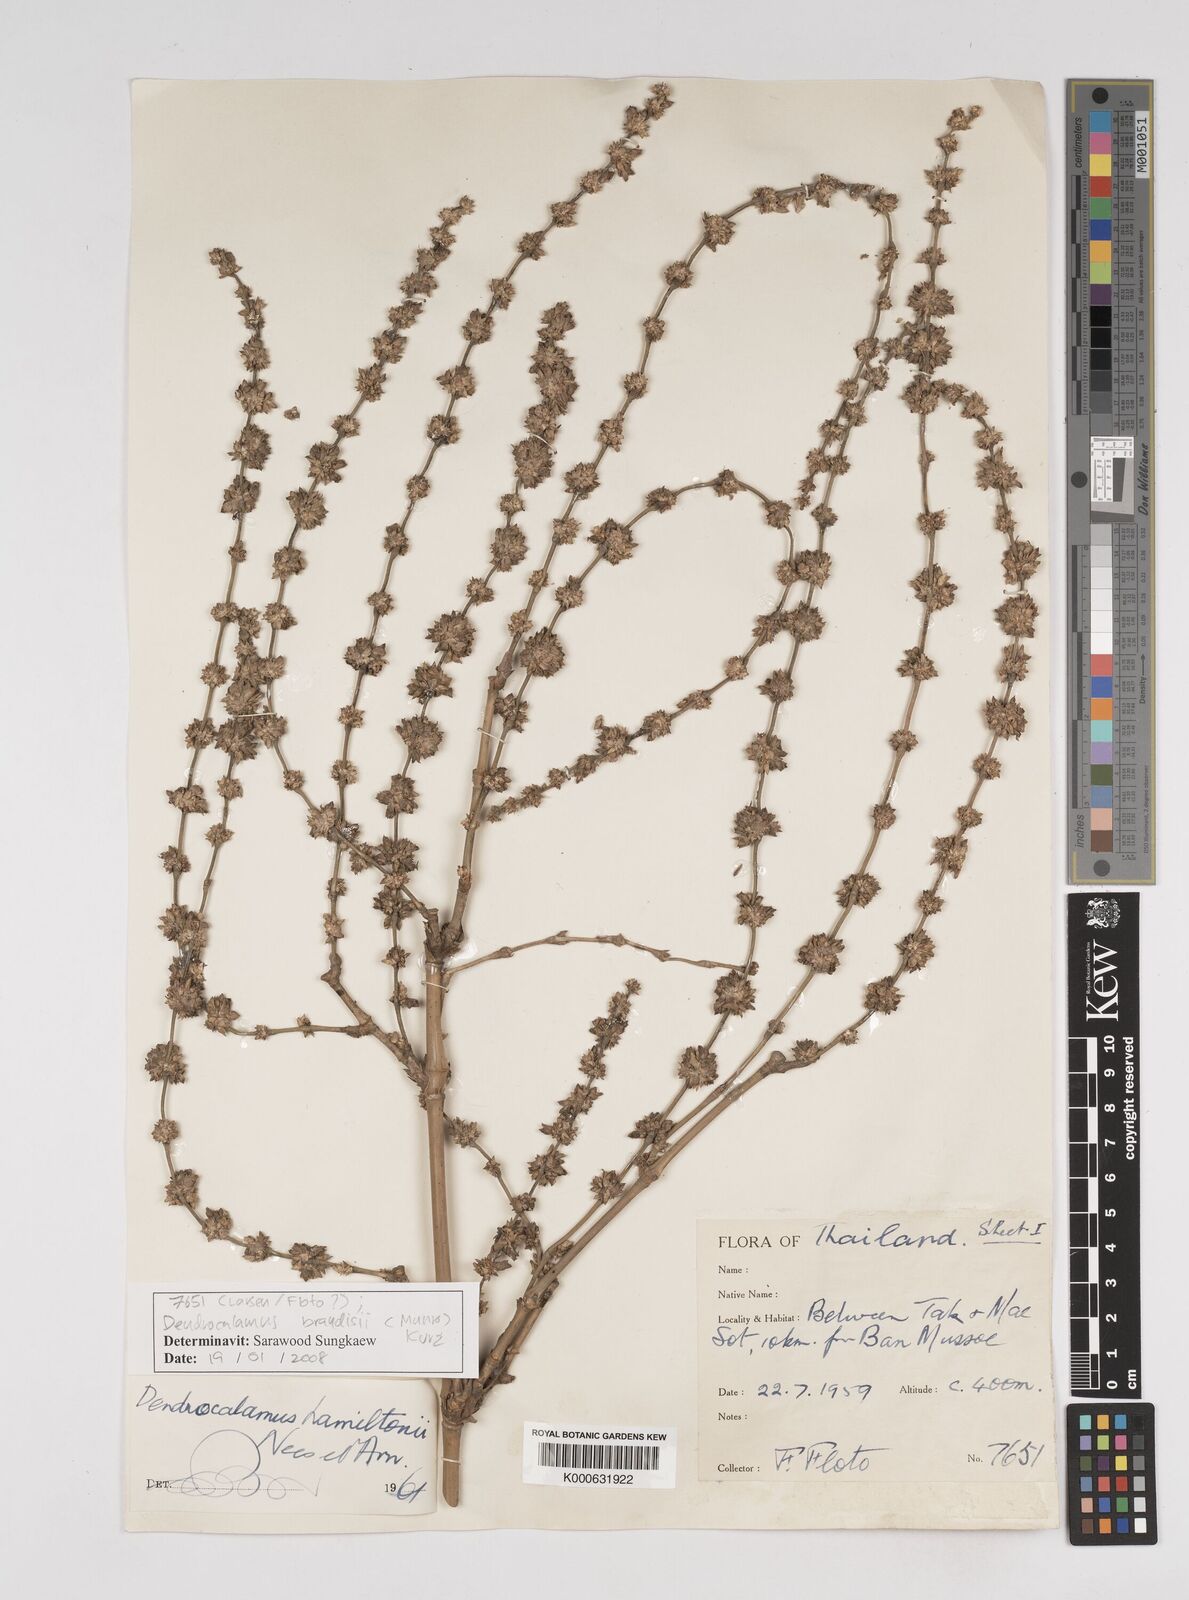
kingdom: Plantae
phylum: Tracheophyta
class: Liliopsida
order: Poales
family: Poaceae
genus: Dendrocalamus
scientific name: Dendrocalamus brandisii
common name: Velvetleaf bamboo
